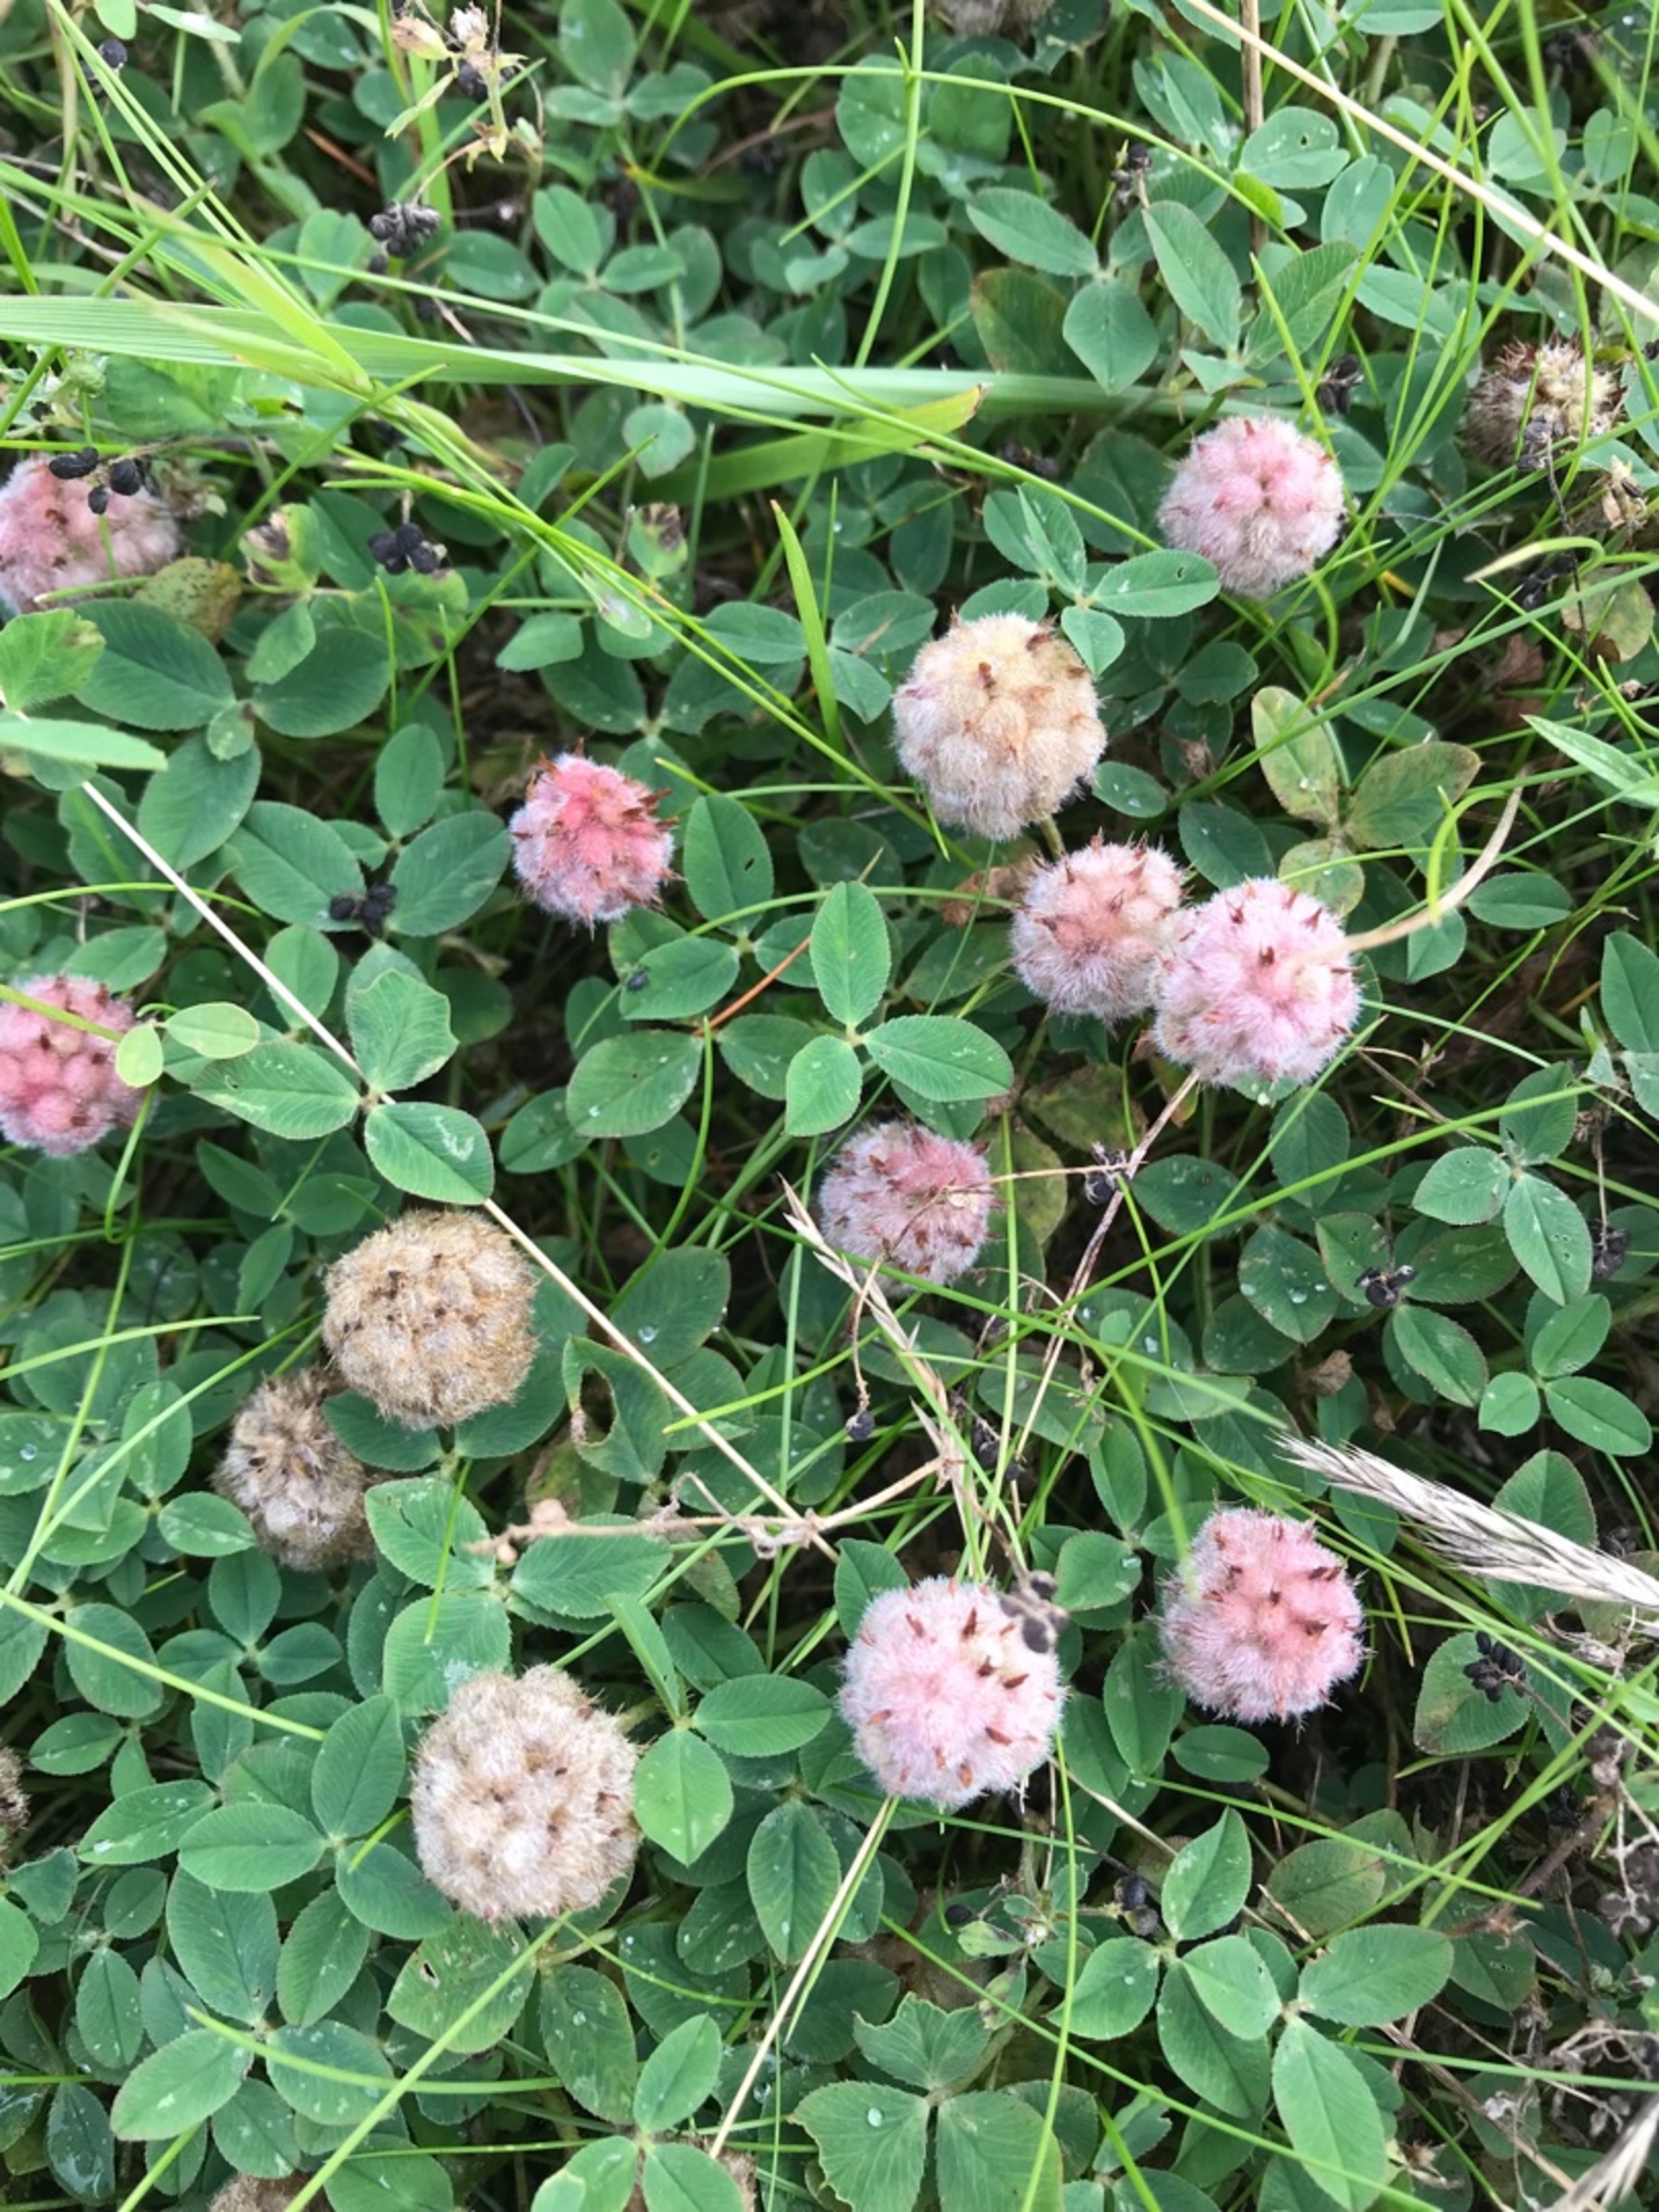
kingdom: Plantae
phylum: Tracheophyta
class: Magnoliopsida
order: Fabales
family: Fabaceae
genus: Trifolium
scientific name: Trifolium fragiferum
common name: Jordbær-kløver
